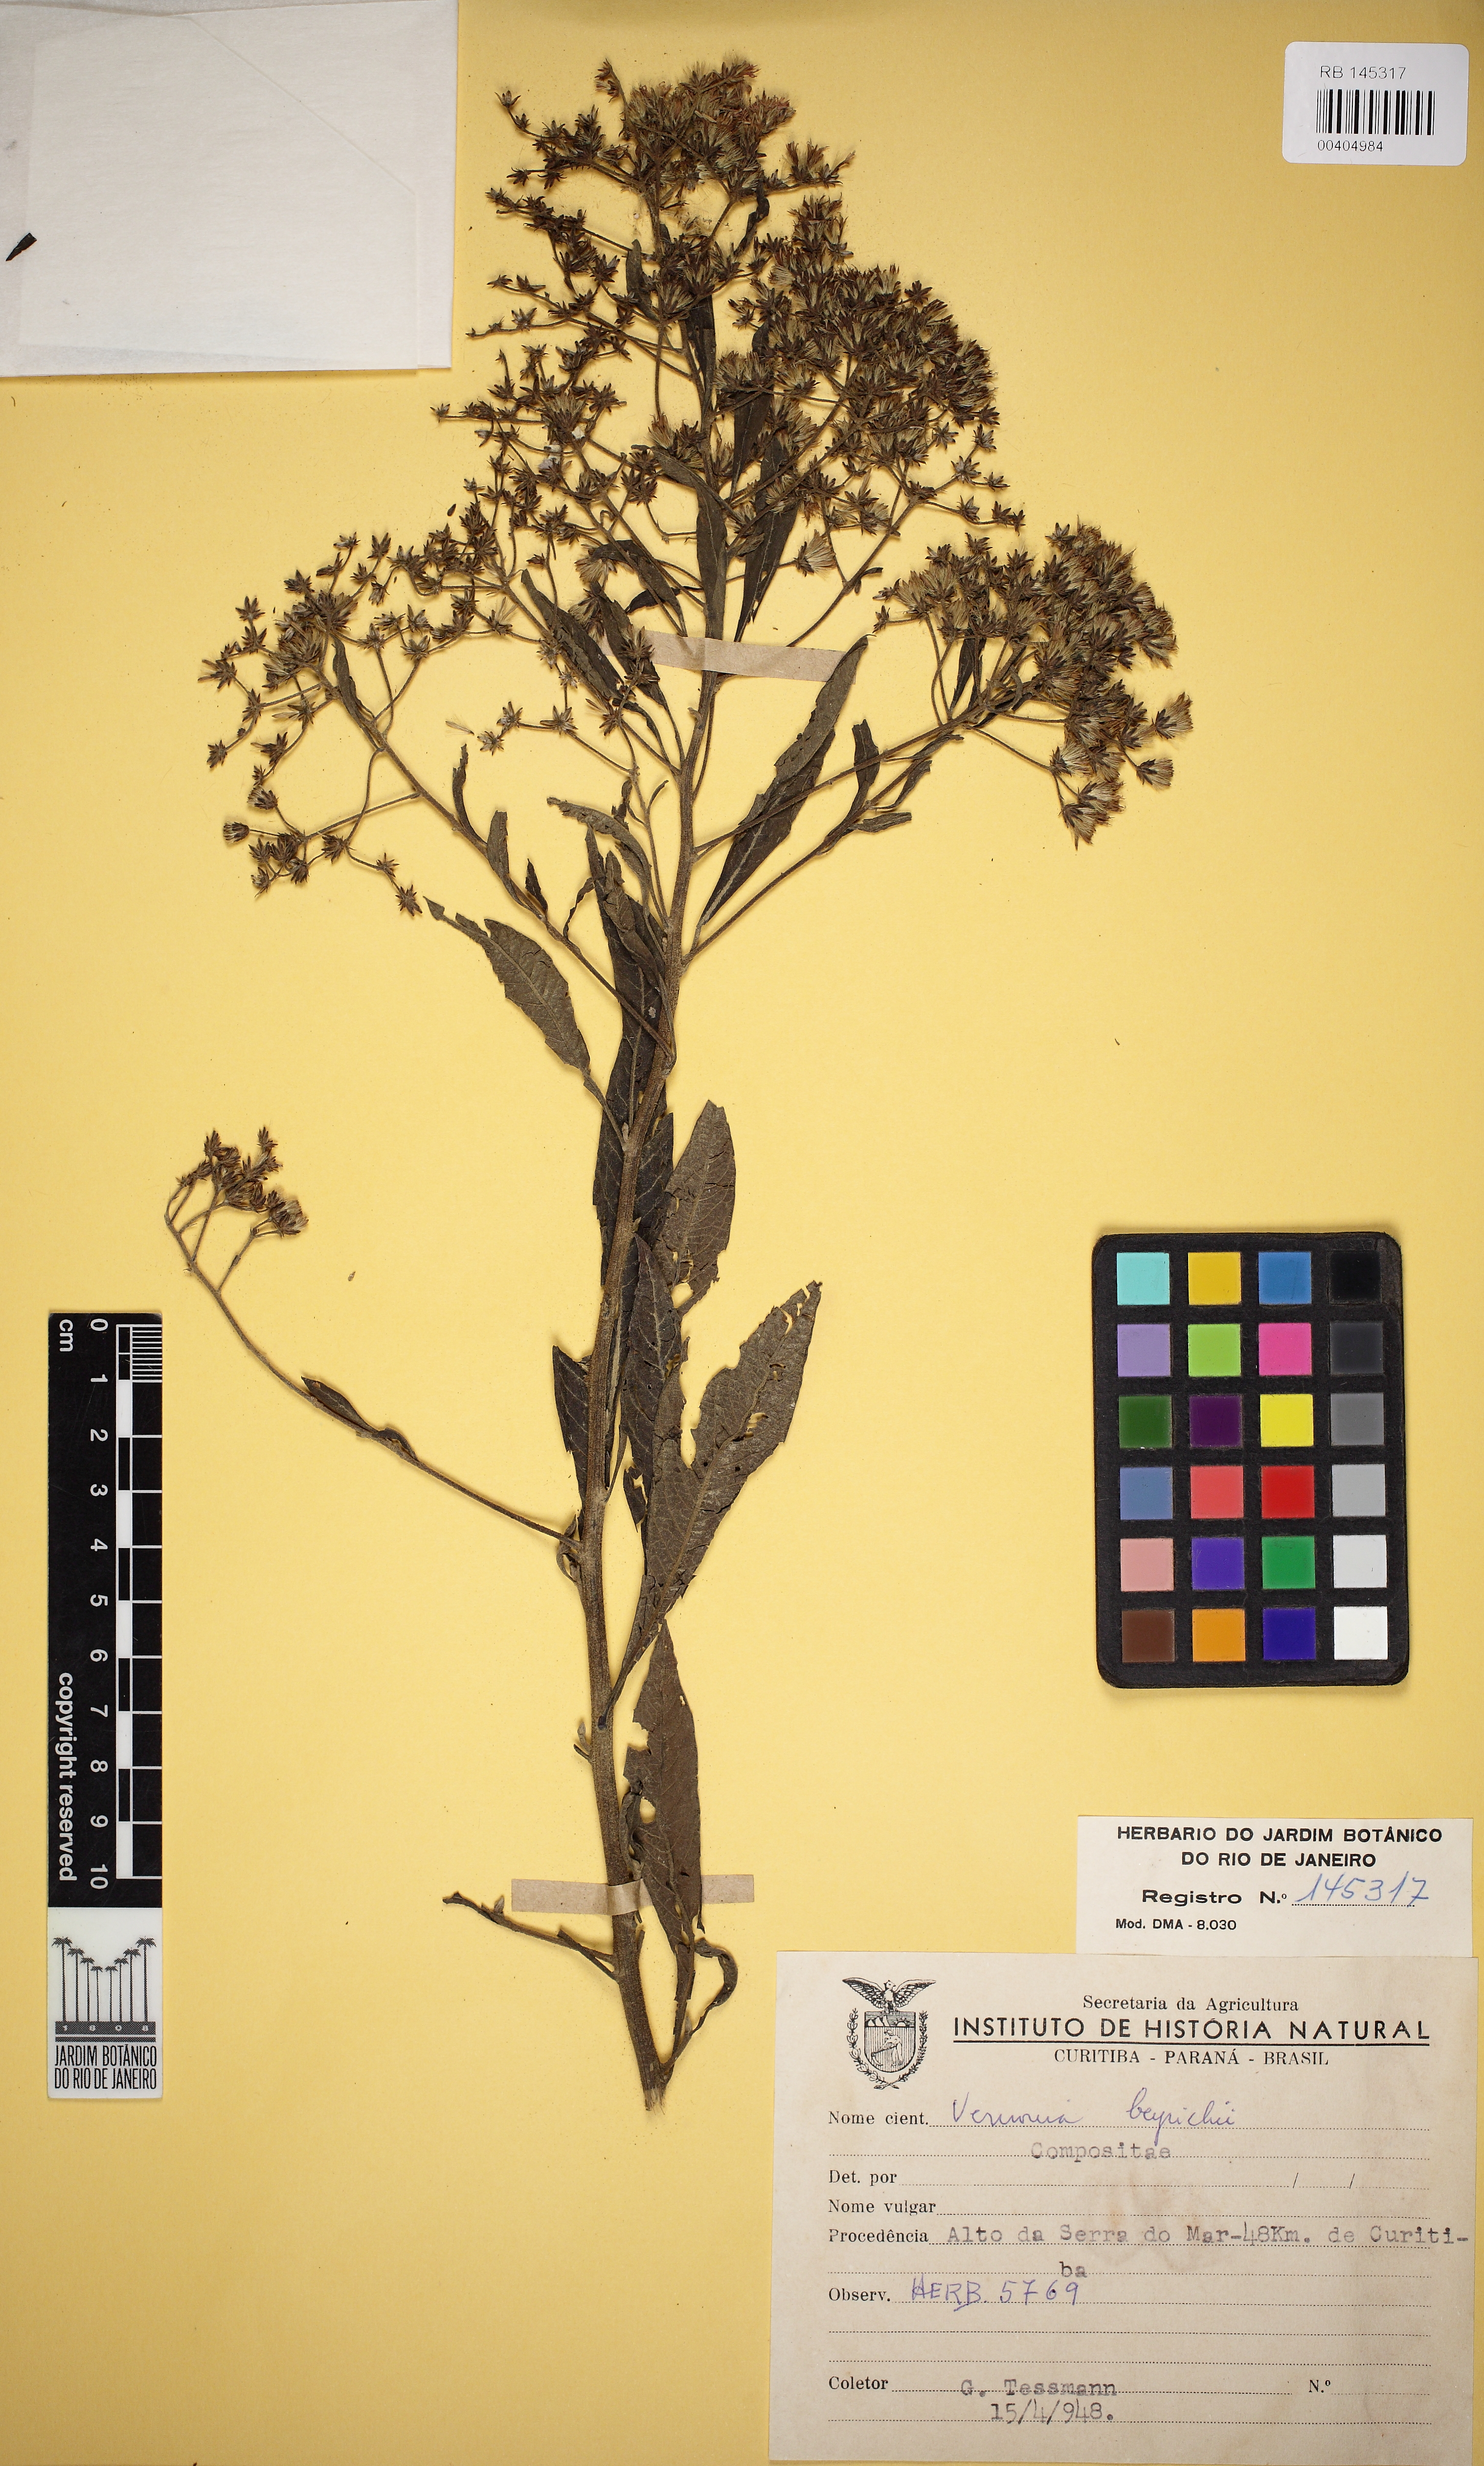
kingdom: Plantae
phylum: Tracheophyta
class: Magnoliopsida
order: Asterales
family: Asteraceae
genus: Vernonanthura
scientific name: Vernonanthura beyrichii
